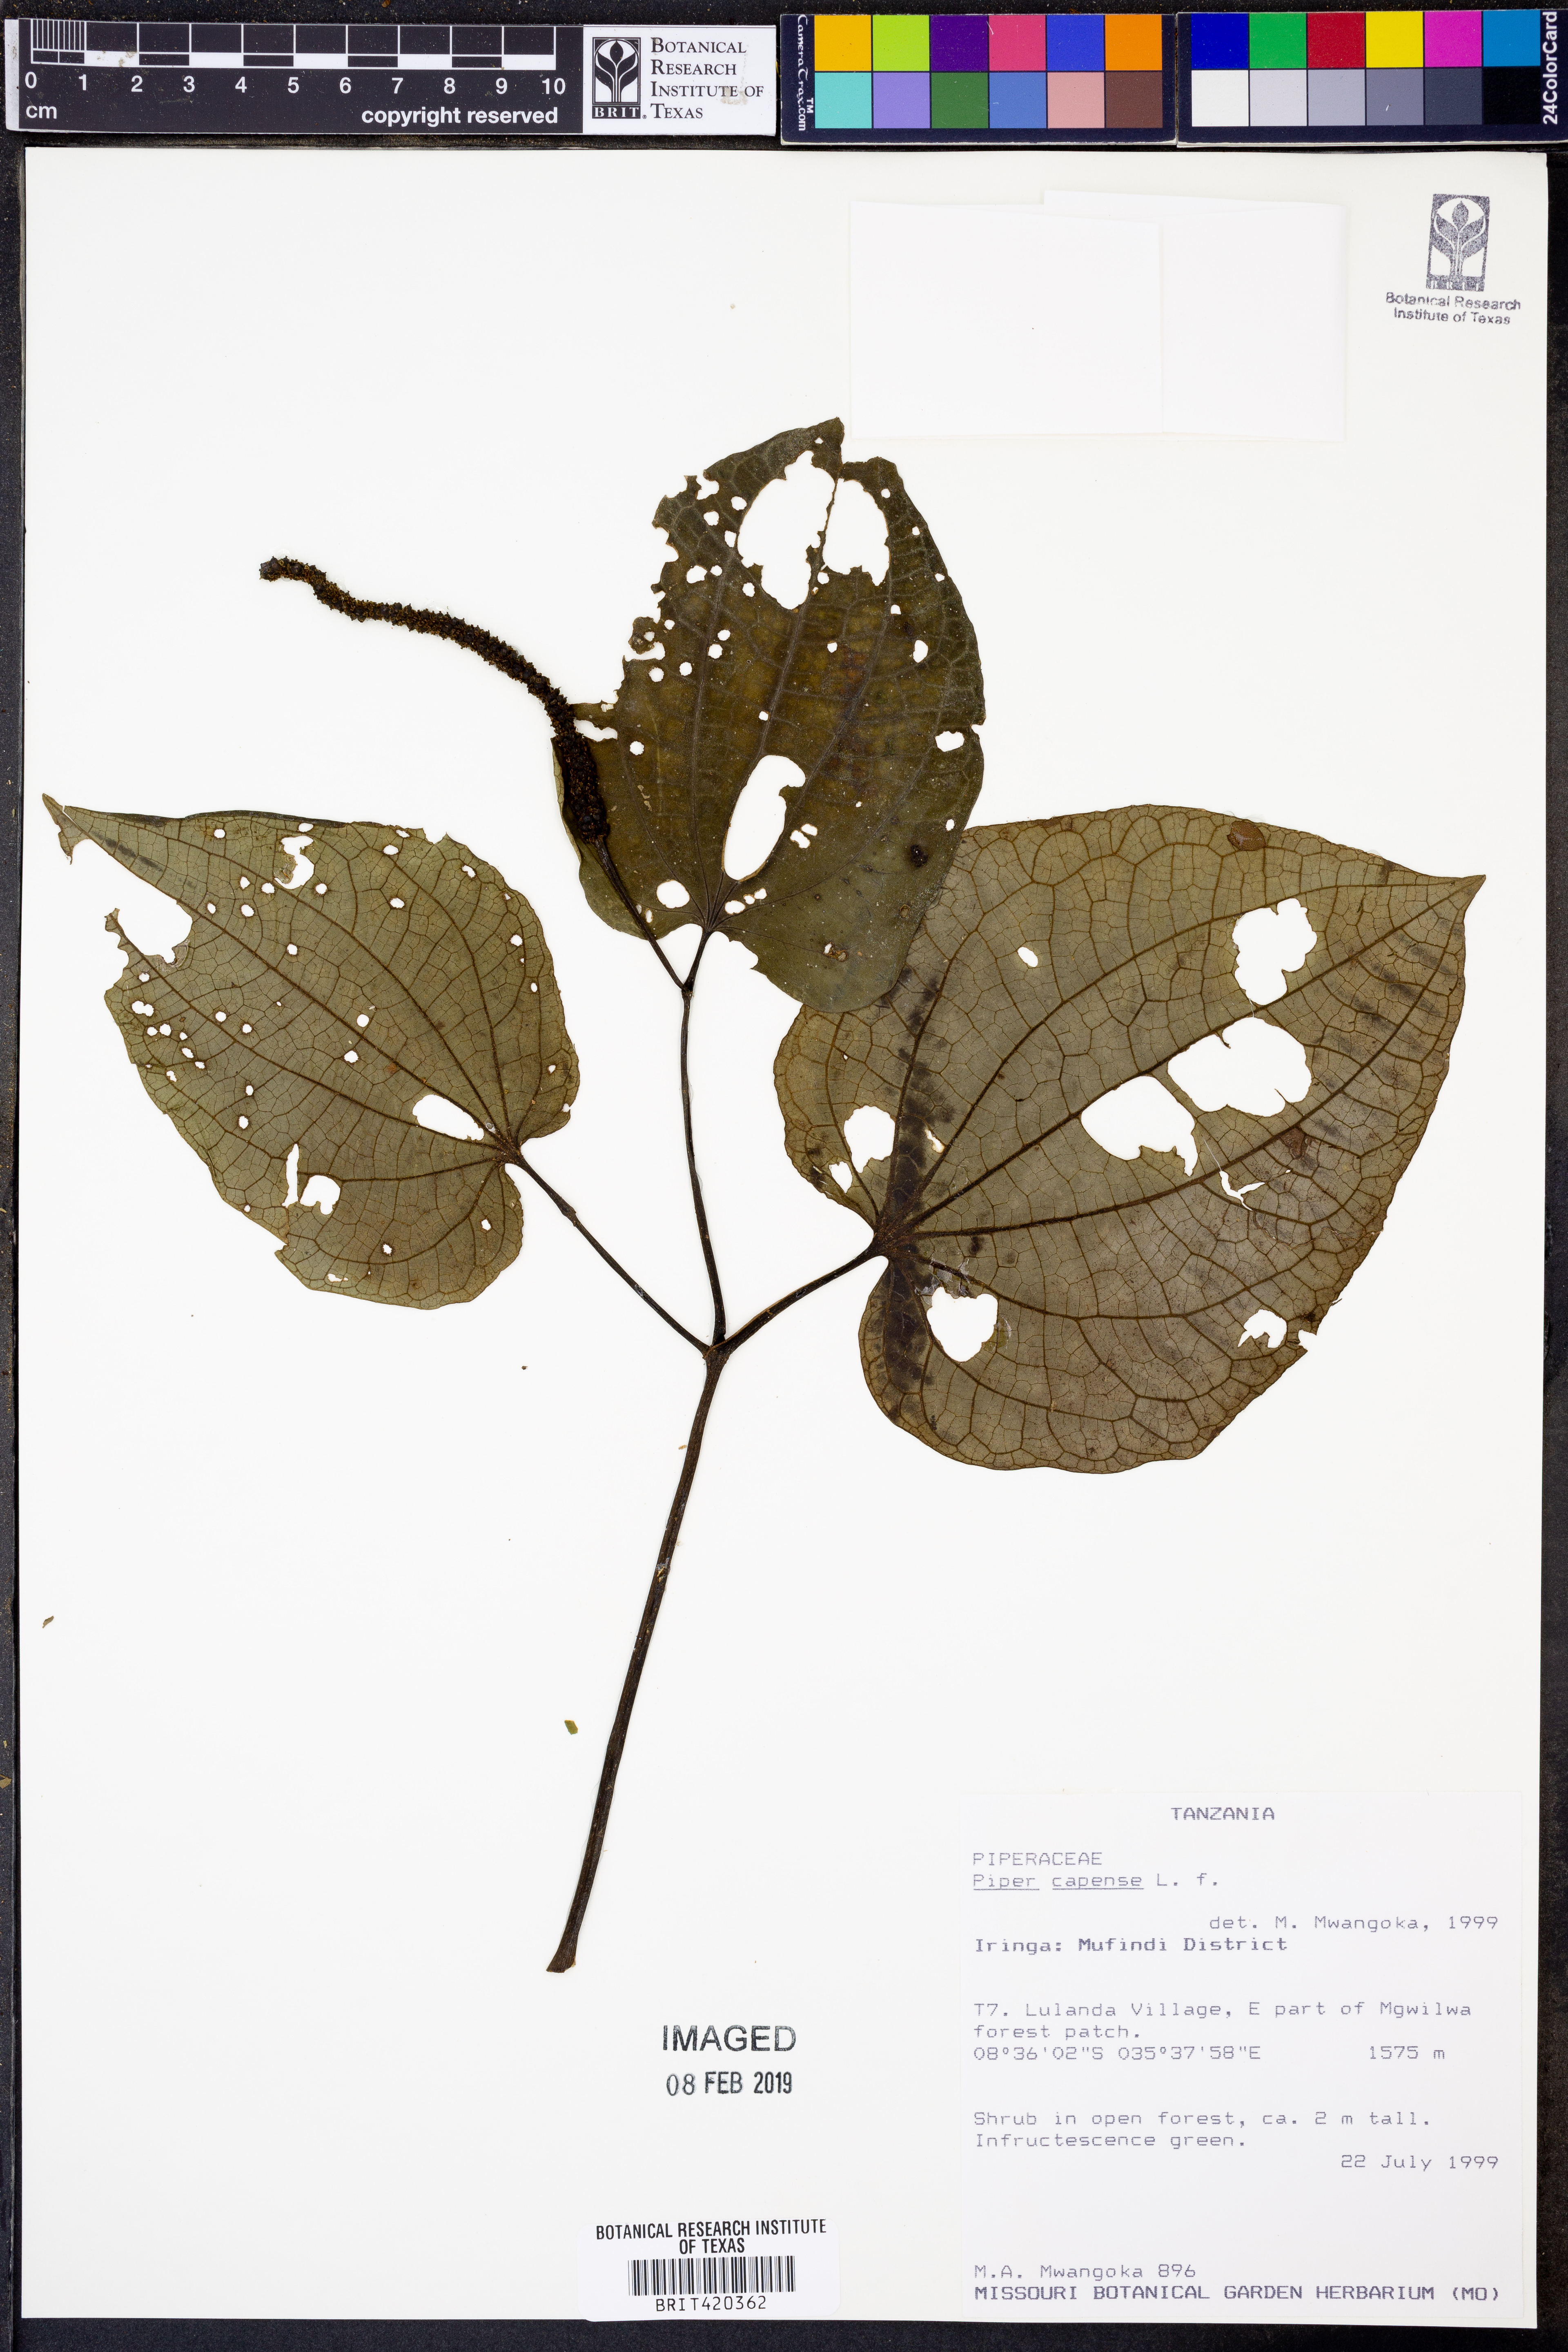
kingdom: Plantae
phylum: Tracheophyta
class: Magnoliopsida
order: Piperales
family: Piperaceae
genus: Piper
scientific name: Piper capense
